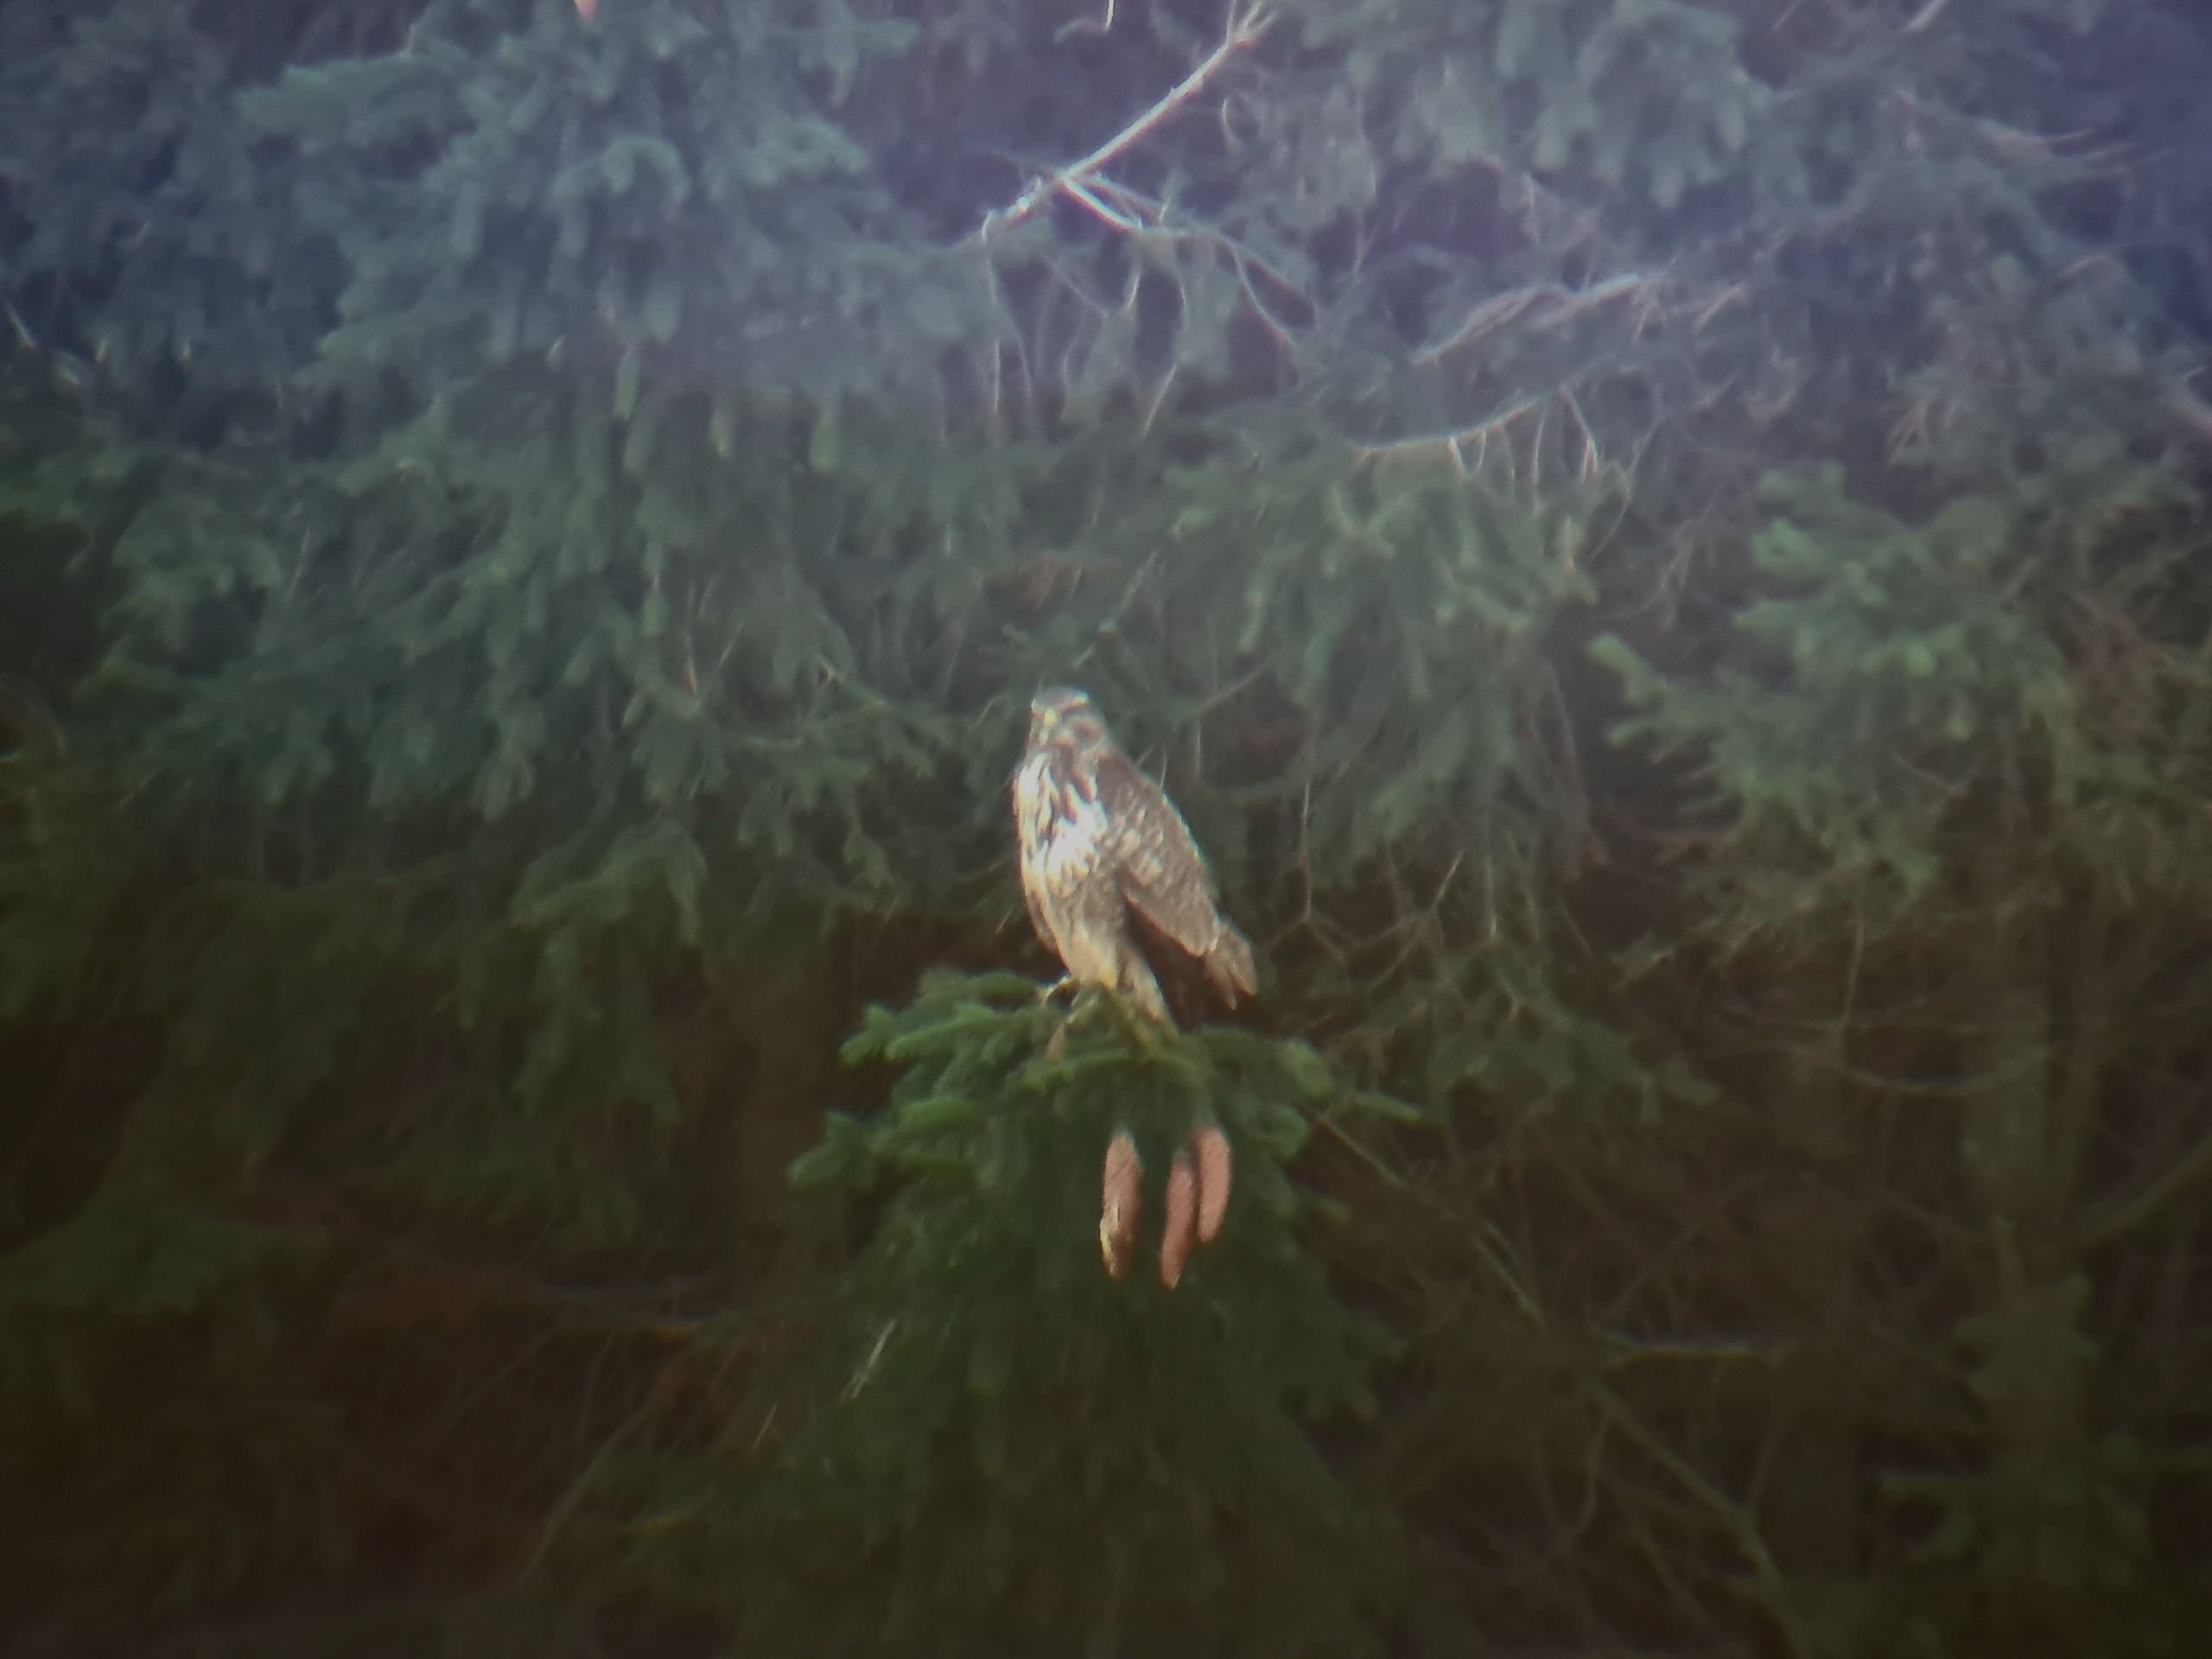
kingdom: Animalia
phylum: Chordata
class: Aves
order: Accipitriformes
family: Accipitridae
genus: Buteo
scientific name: Buteo buteo
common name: Musvåge
